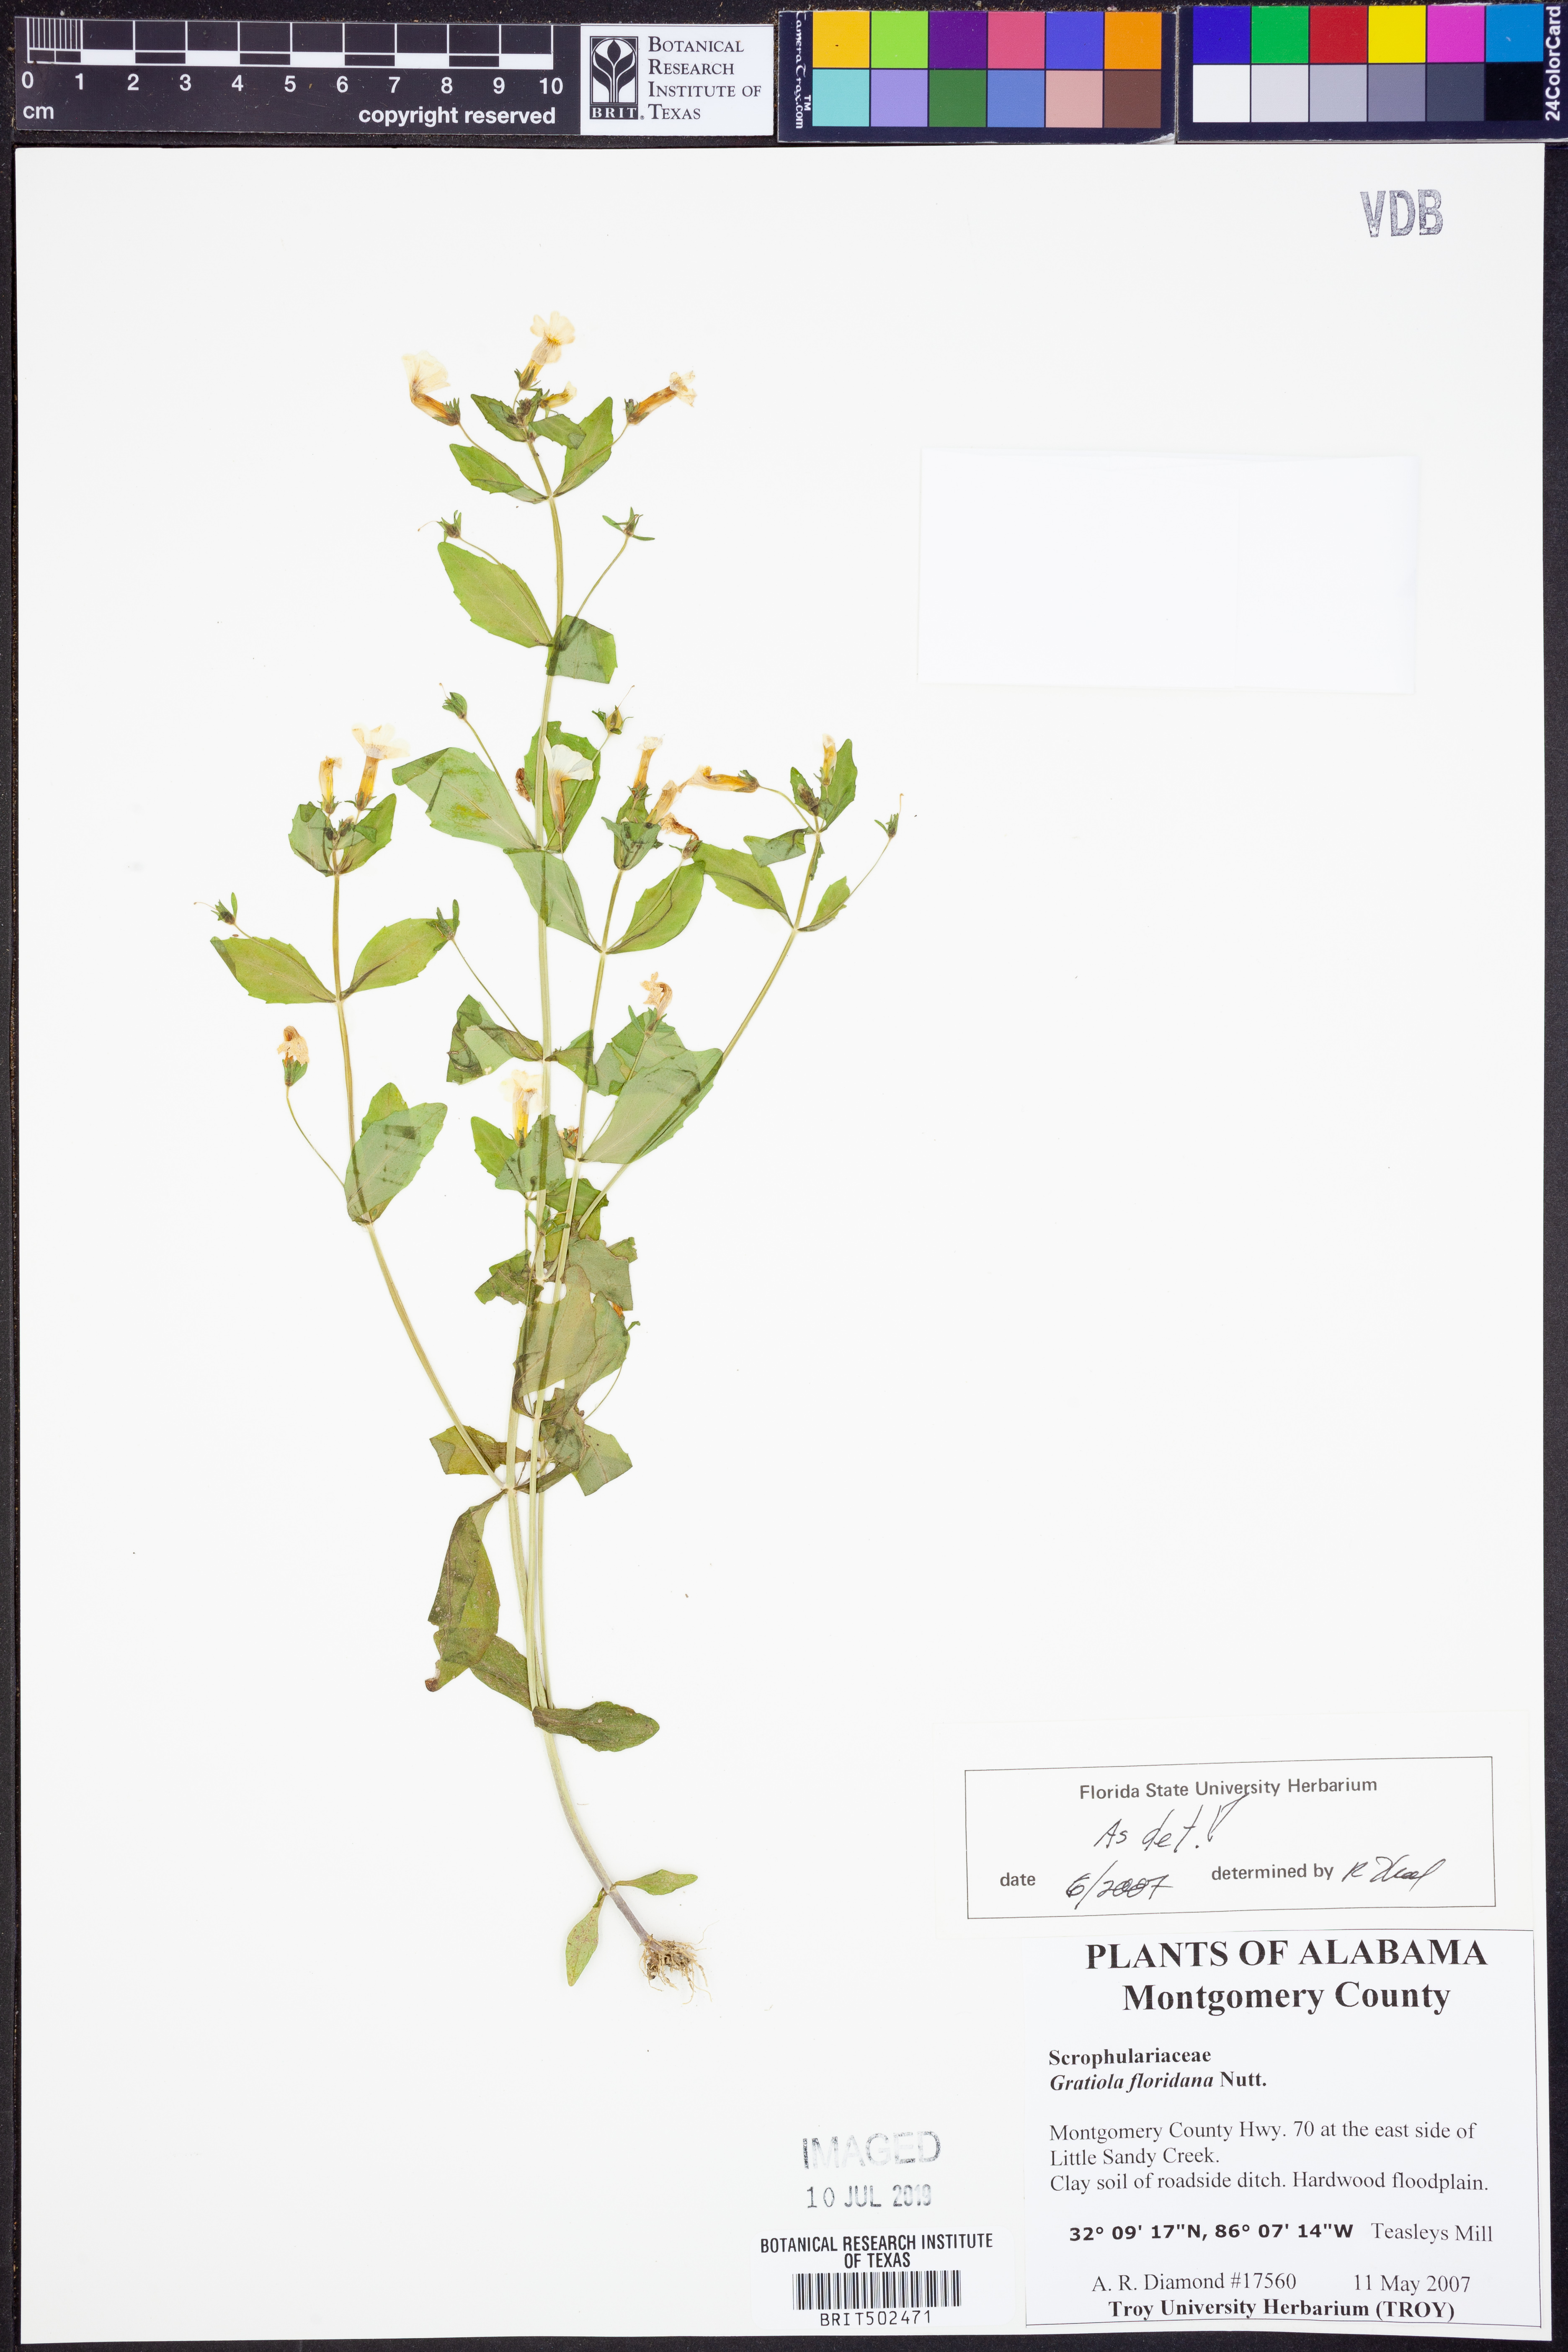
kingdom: Plantae
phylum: Tracheophyta
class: Magnoliopsida
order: Lamiales
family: Plantaginaceae
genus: Gratiola
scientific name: Gratiola floridana
